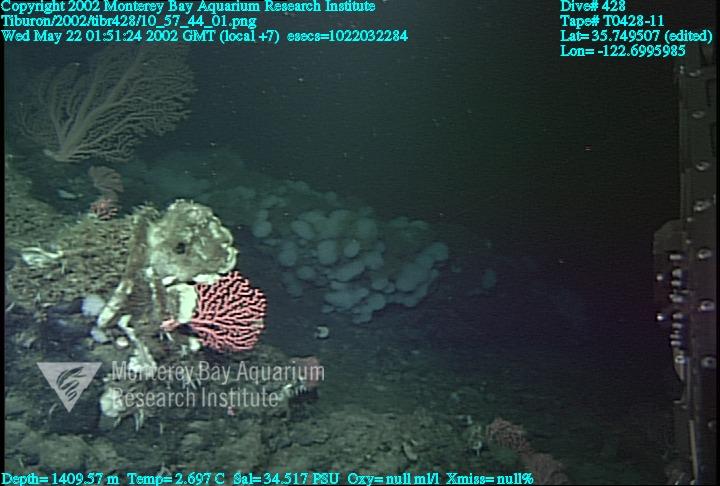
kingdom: Animalia
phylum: Porifera
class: Hexactinellida
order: Sceptrulophora
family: Farreidae
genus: Farrea
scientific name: Farrea occa
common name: Reversed glass sponge
